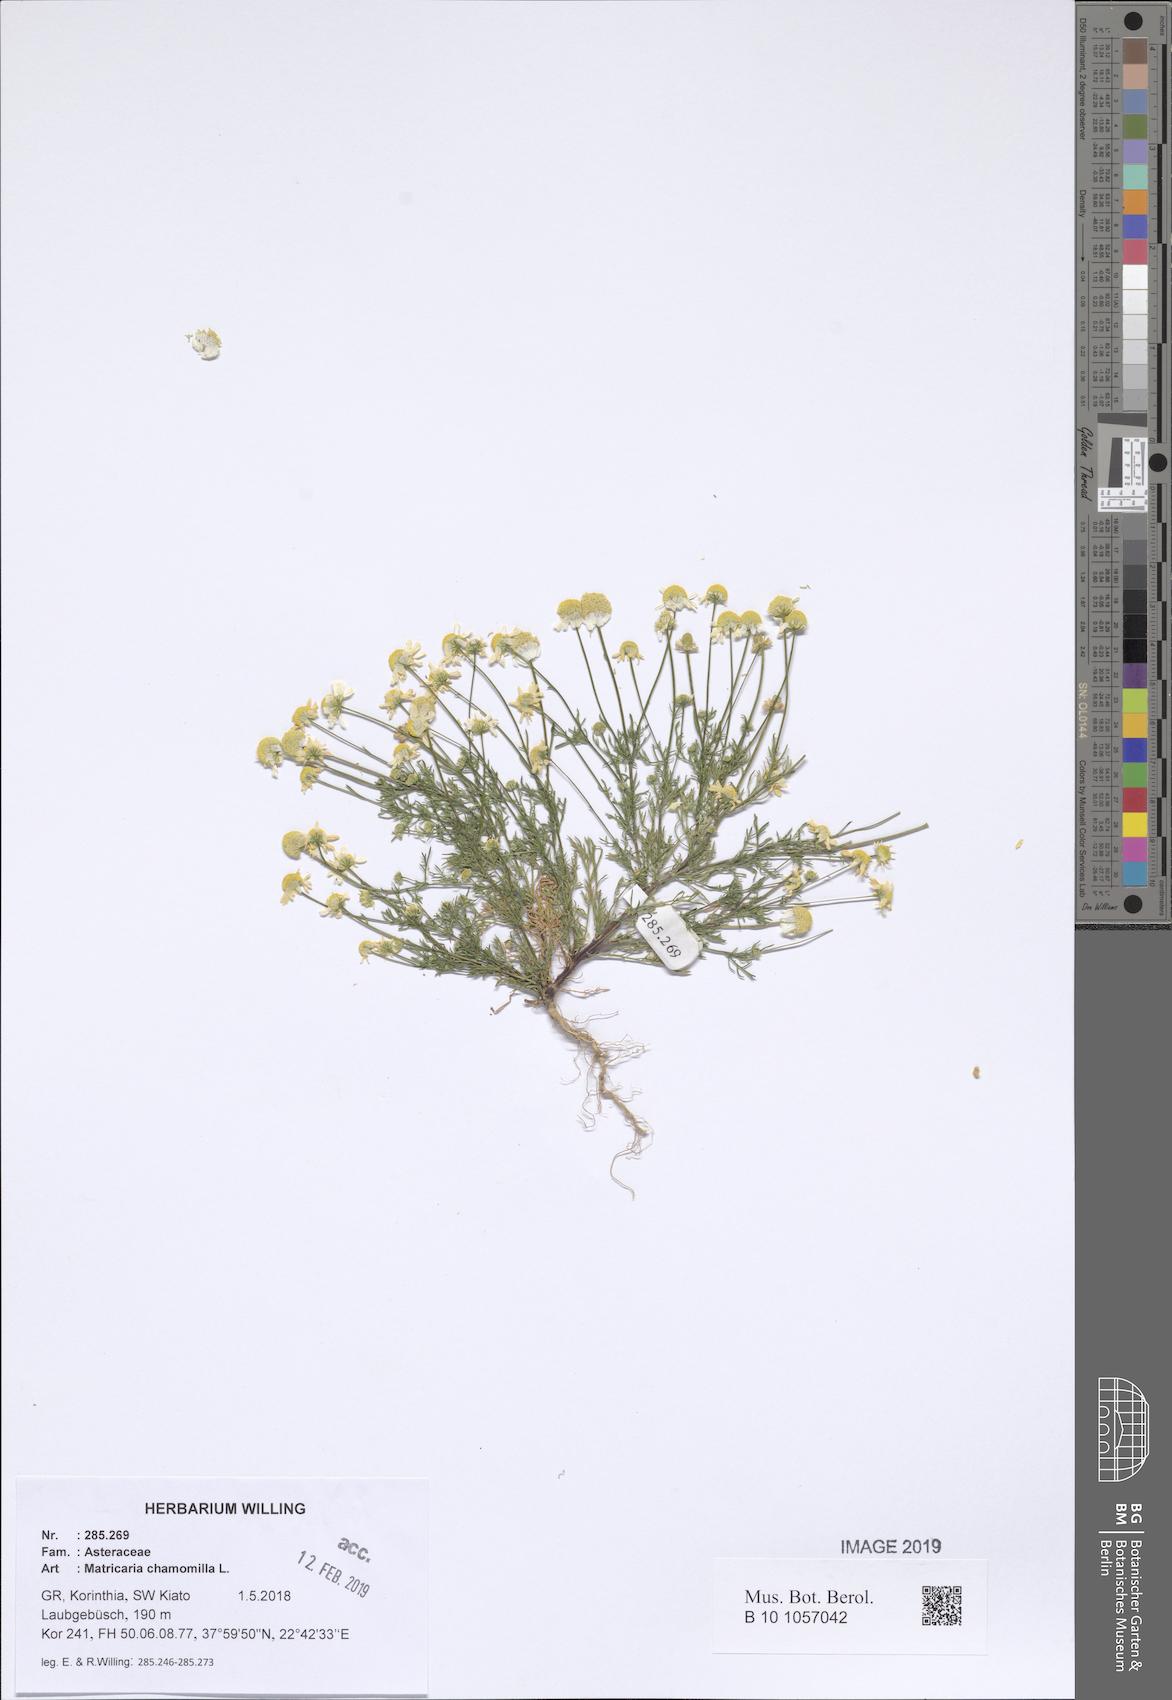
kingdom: Plantae
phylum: Tracheophyta
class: Magnoliopsida
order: Asterales
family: Asteraceae
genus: Matricaria
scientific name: Matricaria chamomilla
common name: Scented mayweed
